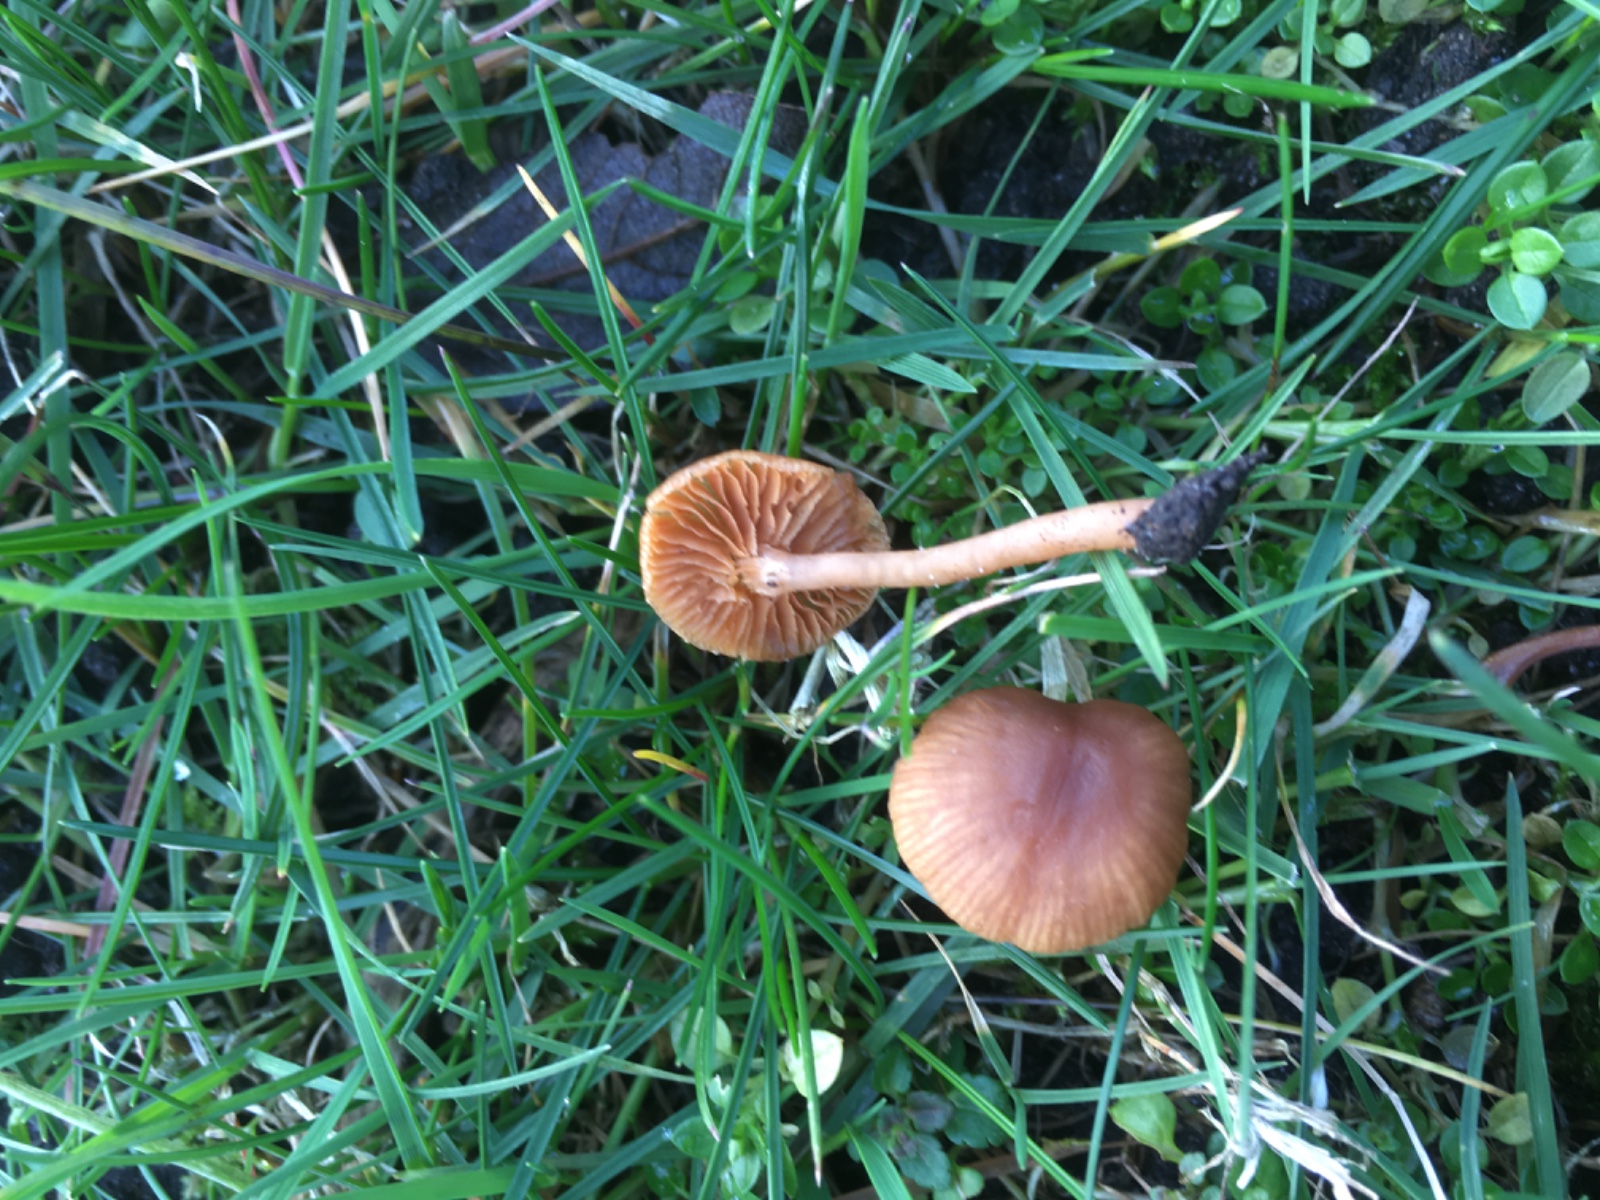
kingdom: Fungi
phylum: Basidiomycota
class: Agaricomycetes
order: Agaricales
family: Tubariaceae
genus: Tubaria
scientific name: Tubaria furfuracea
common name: kliddet fnughat
